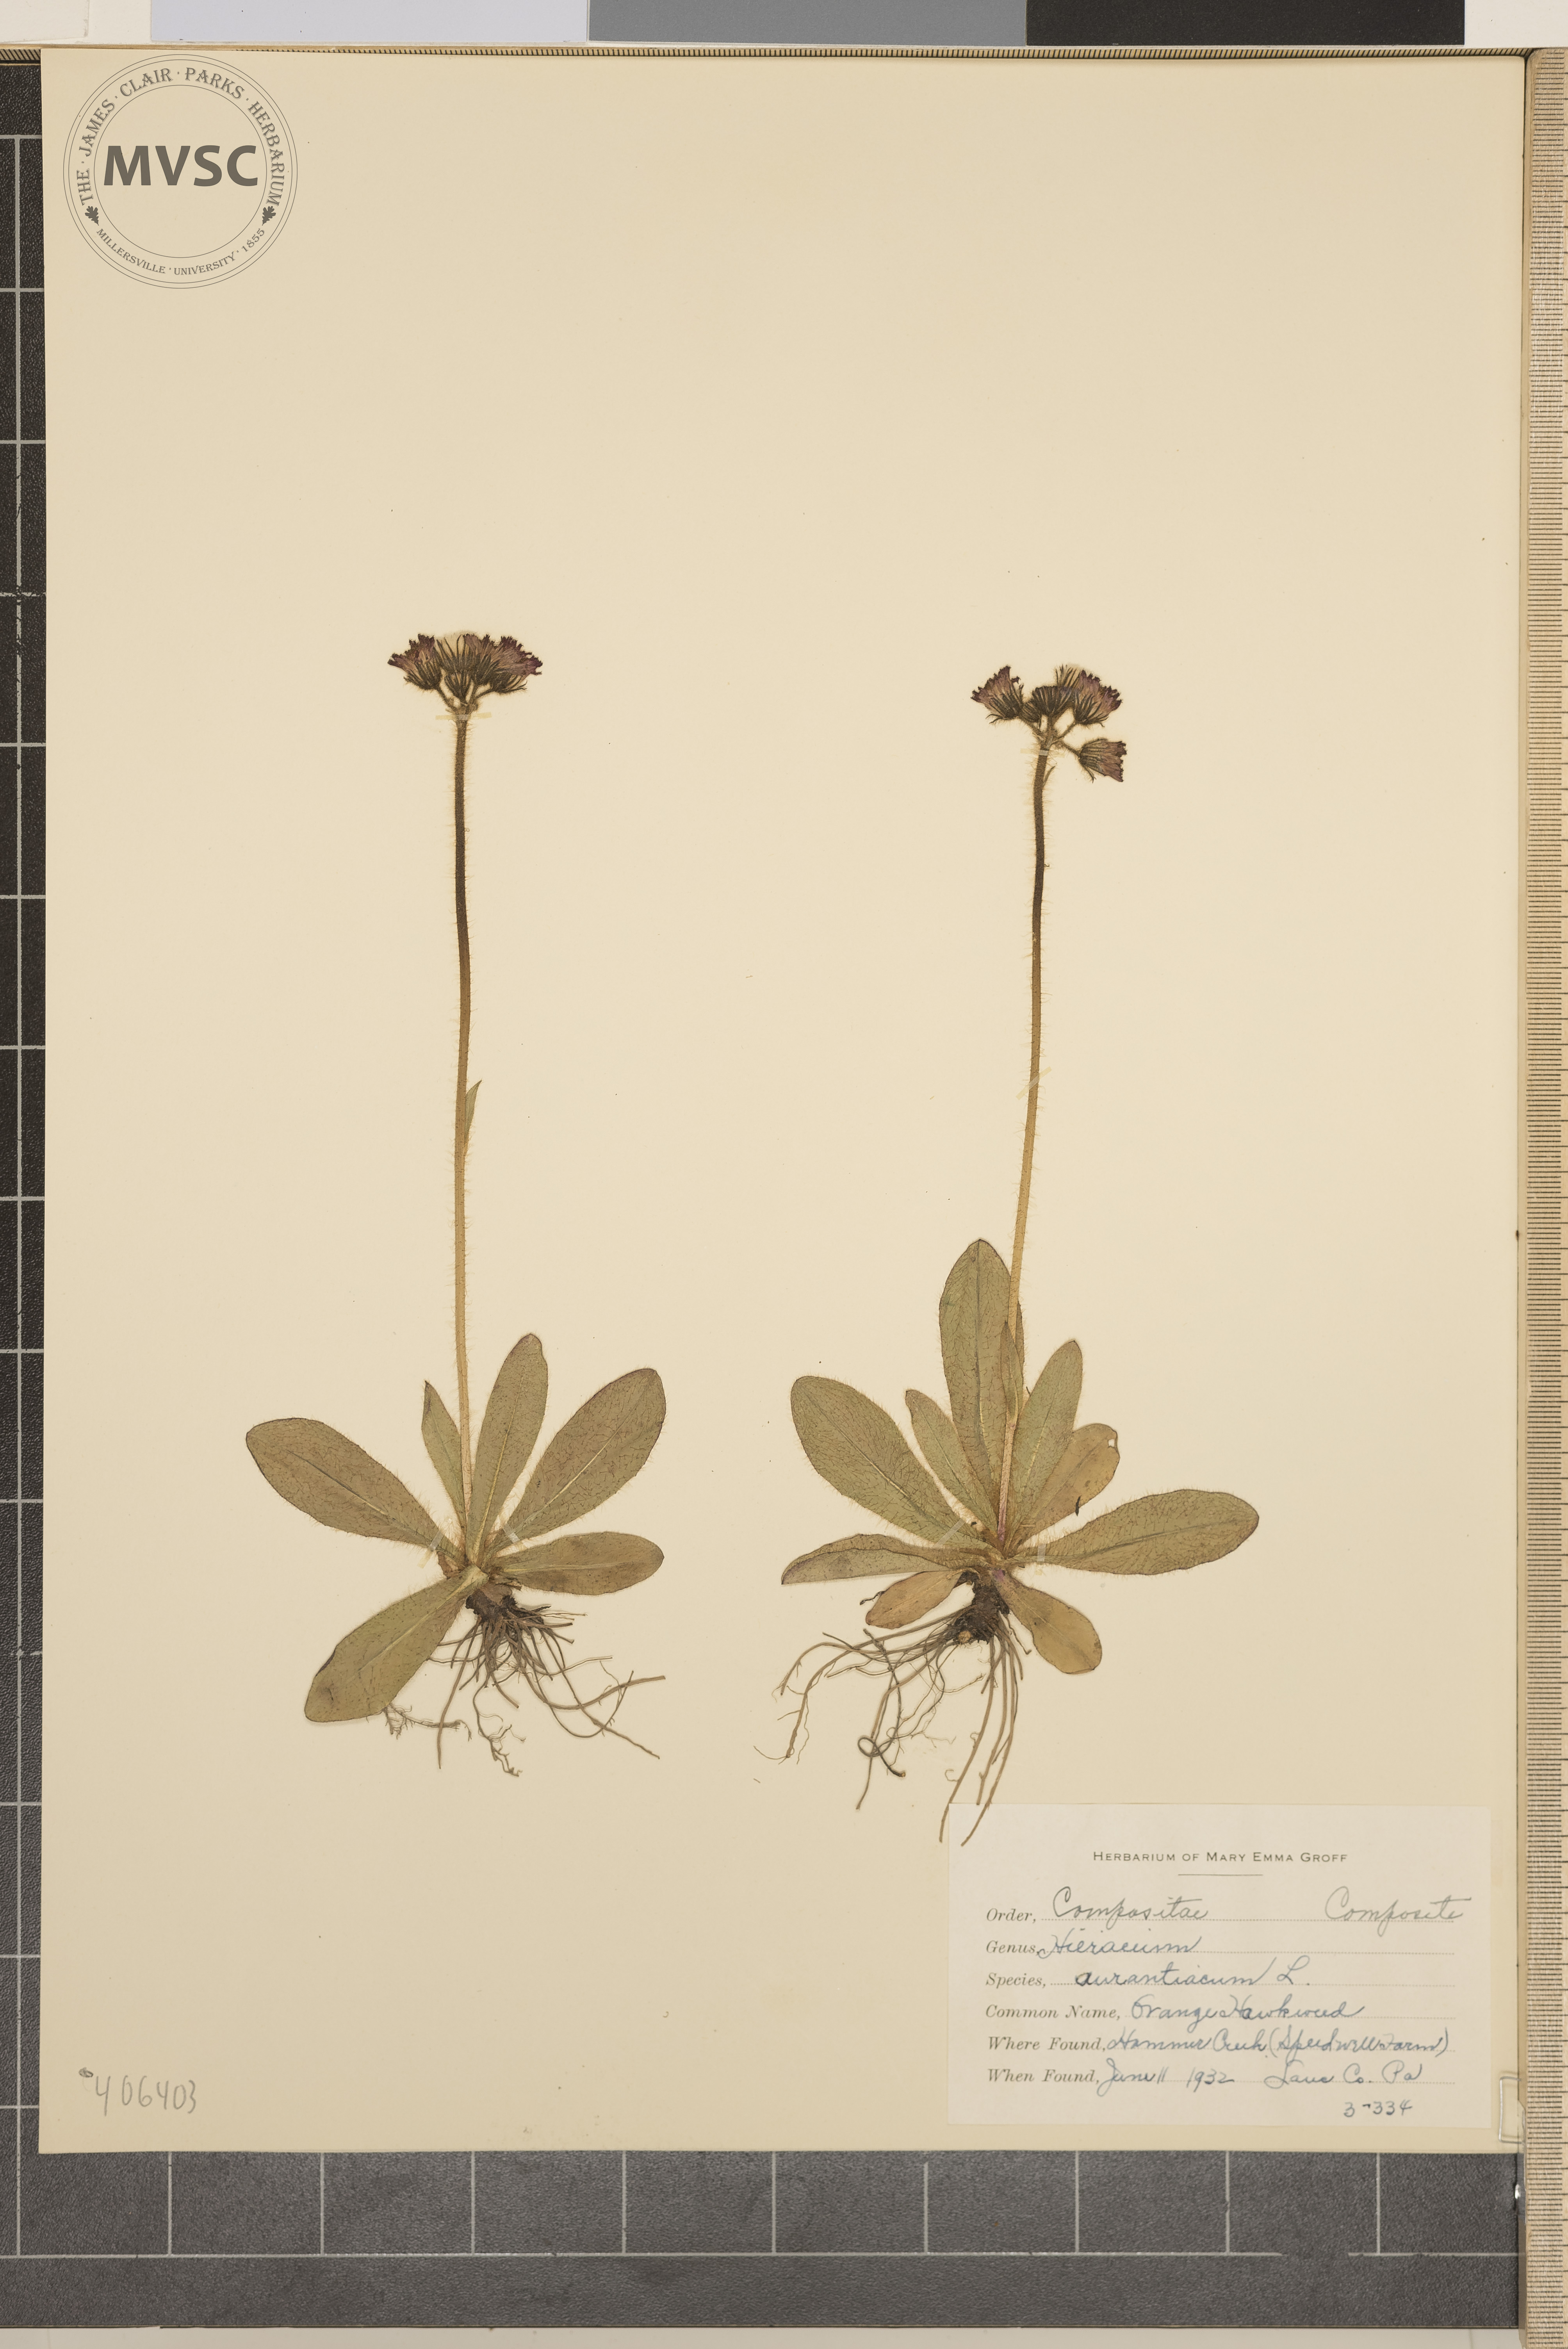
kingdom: Plantae
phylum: Tracheophyta
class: Magnoliopsida
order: Asterales
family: Asteraceae
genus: Pilosella
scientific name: Pilosella aurantiaca
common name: orange hawkweed
